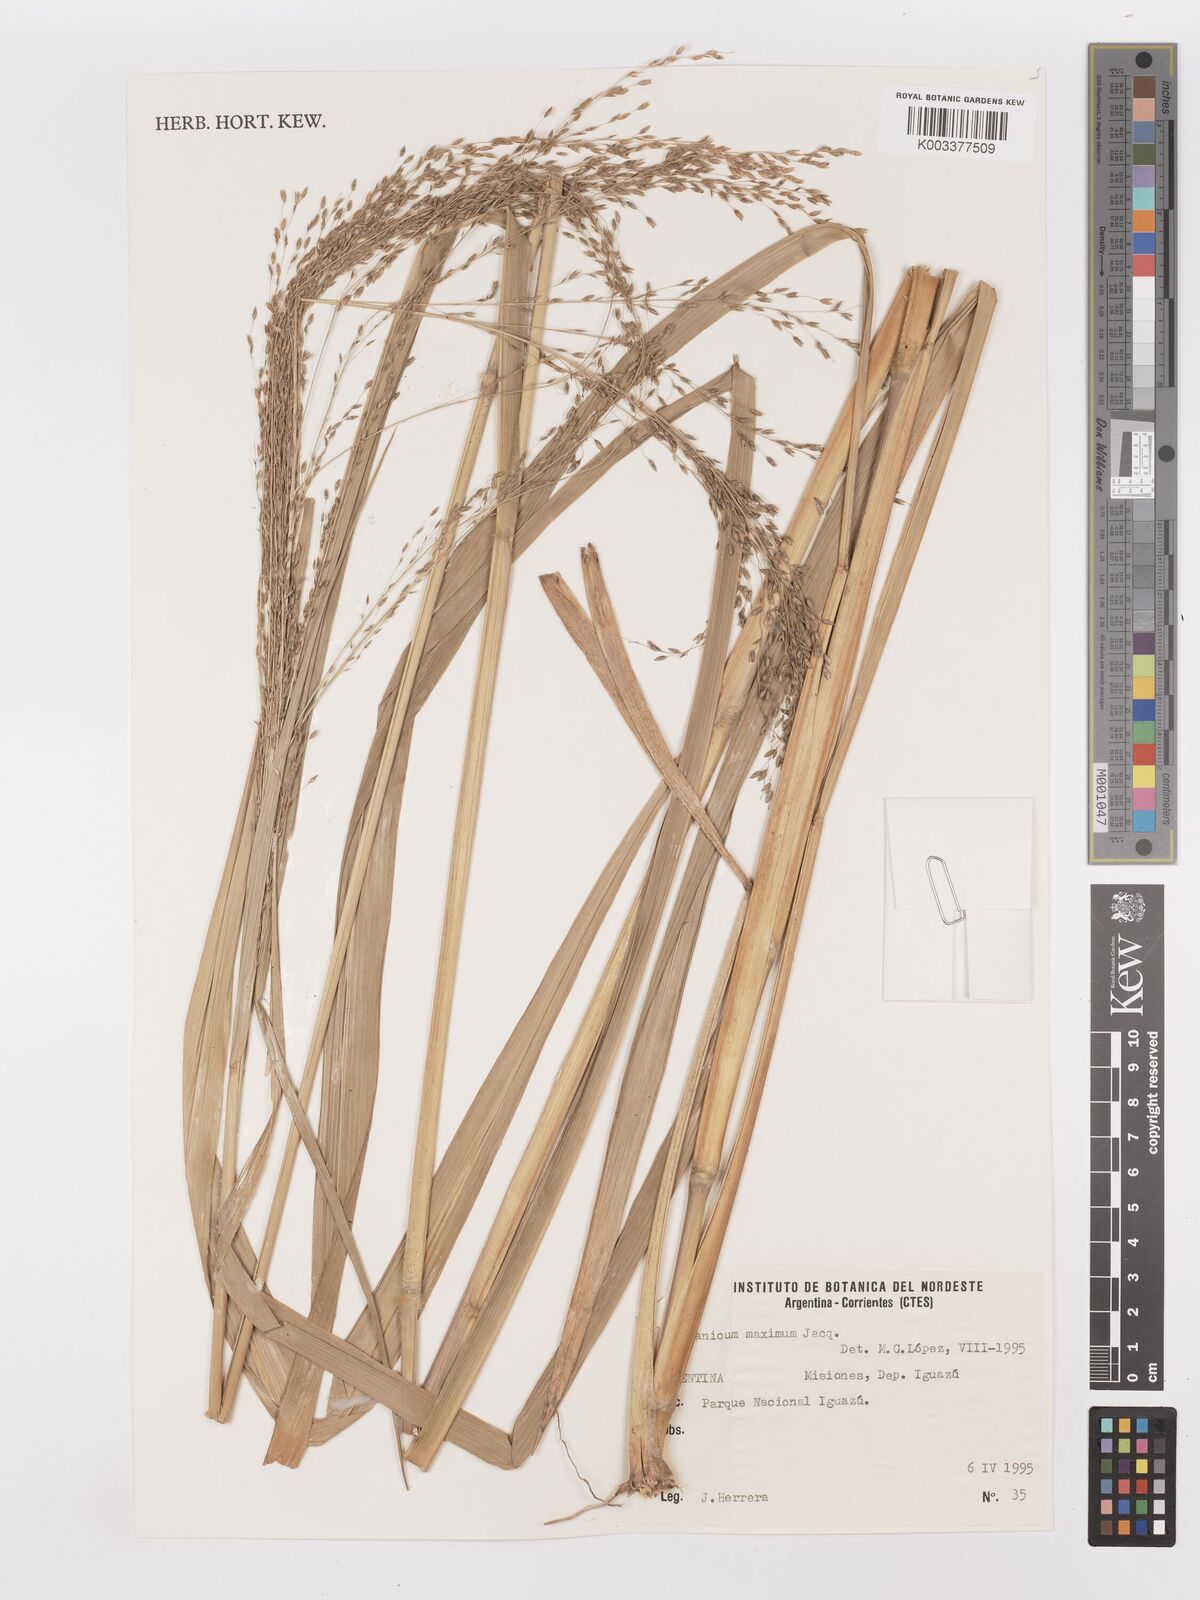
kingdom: Plantae
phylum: Tracheophyta
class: Liliopsida
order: Poales
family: Poaceae
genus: Megathyrsus
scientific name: Megathyrsus maximus
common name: Guineagrass
